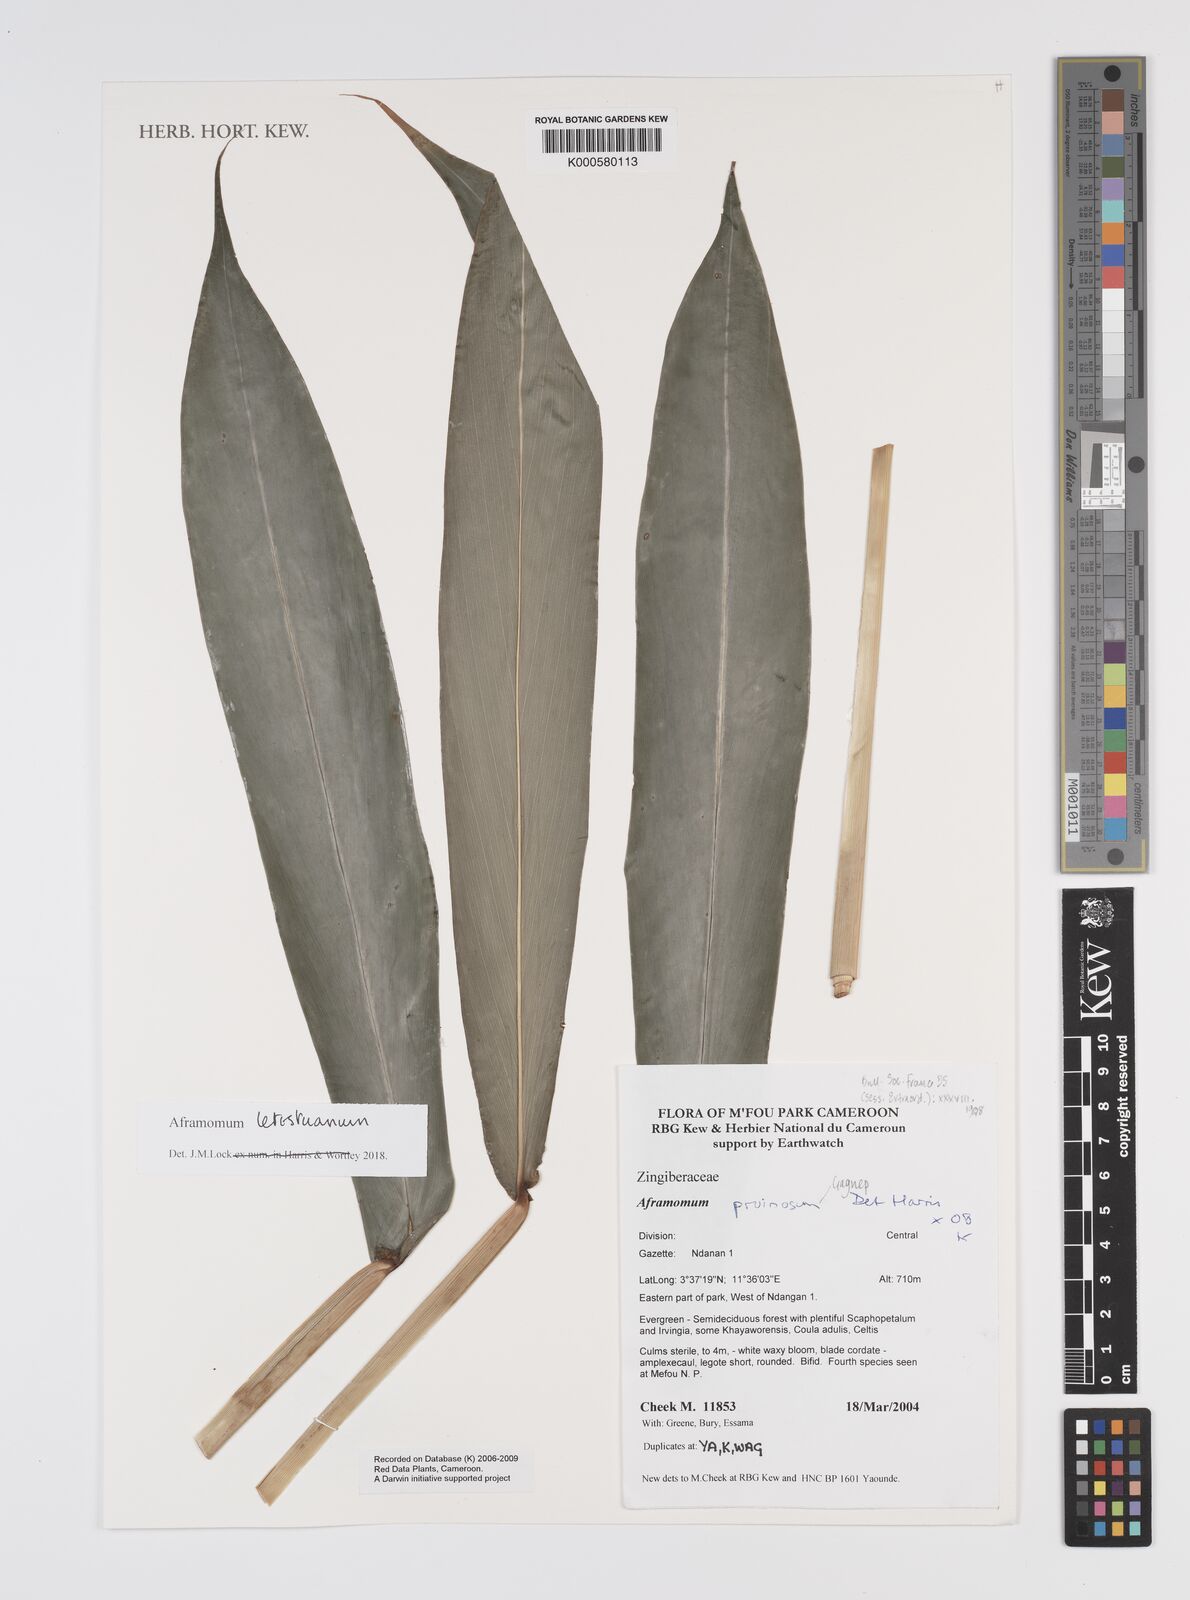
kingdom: Plantae
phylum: Tracheophyta
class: Liliopsida
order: Zingiberales
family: Zingiberaceae
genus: Aframomum
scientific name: Aframomum letestuanum
